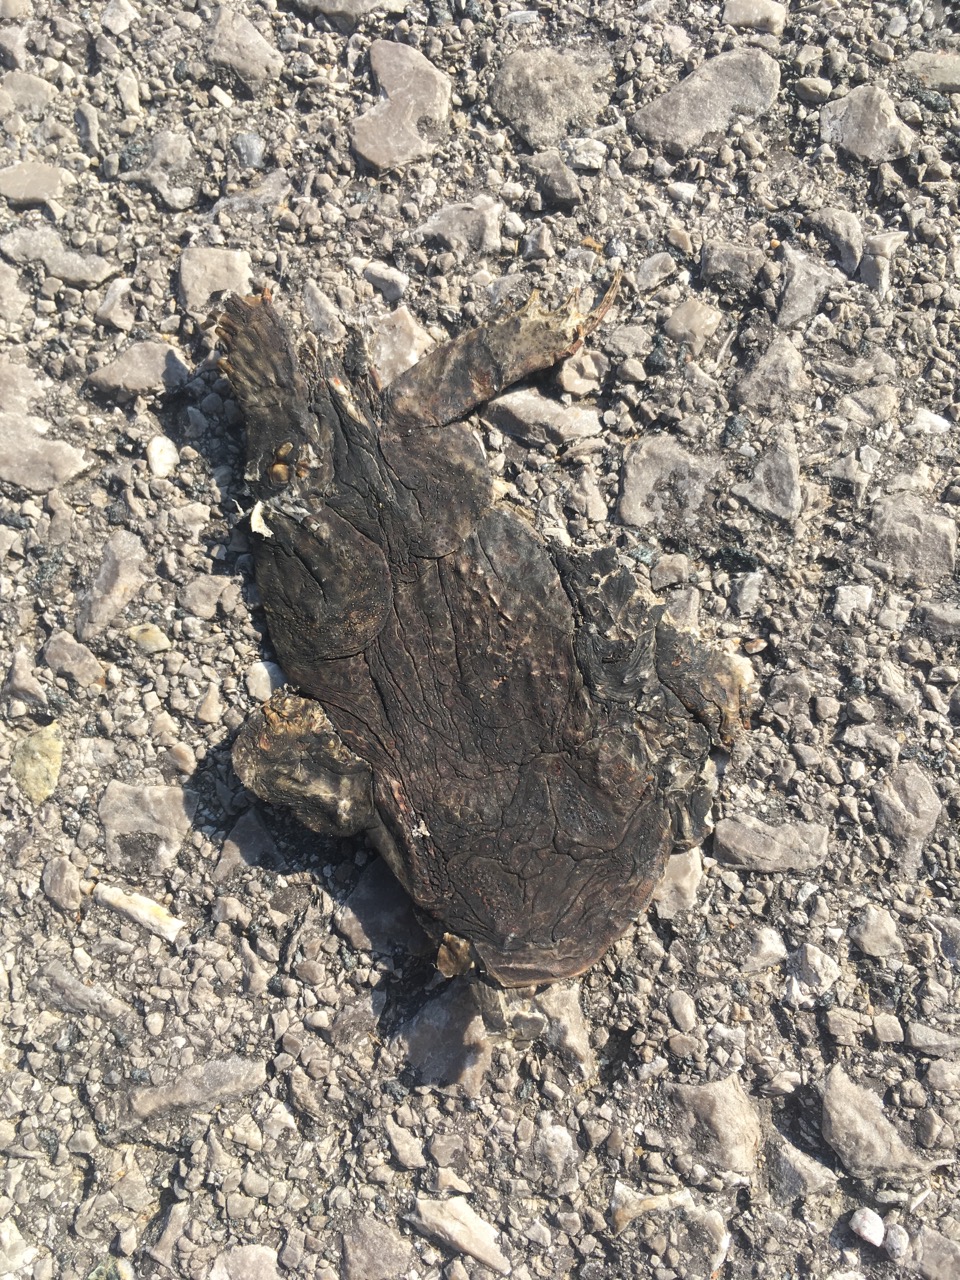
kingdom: Animalia
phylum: Chordata
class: Amphibia
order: Anura
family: Bufonidae
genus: Bufo
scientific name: Bufo bufo
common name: Common toad
